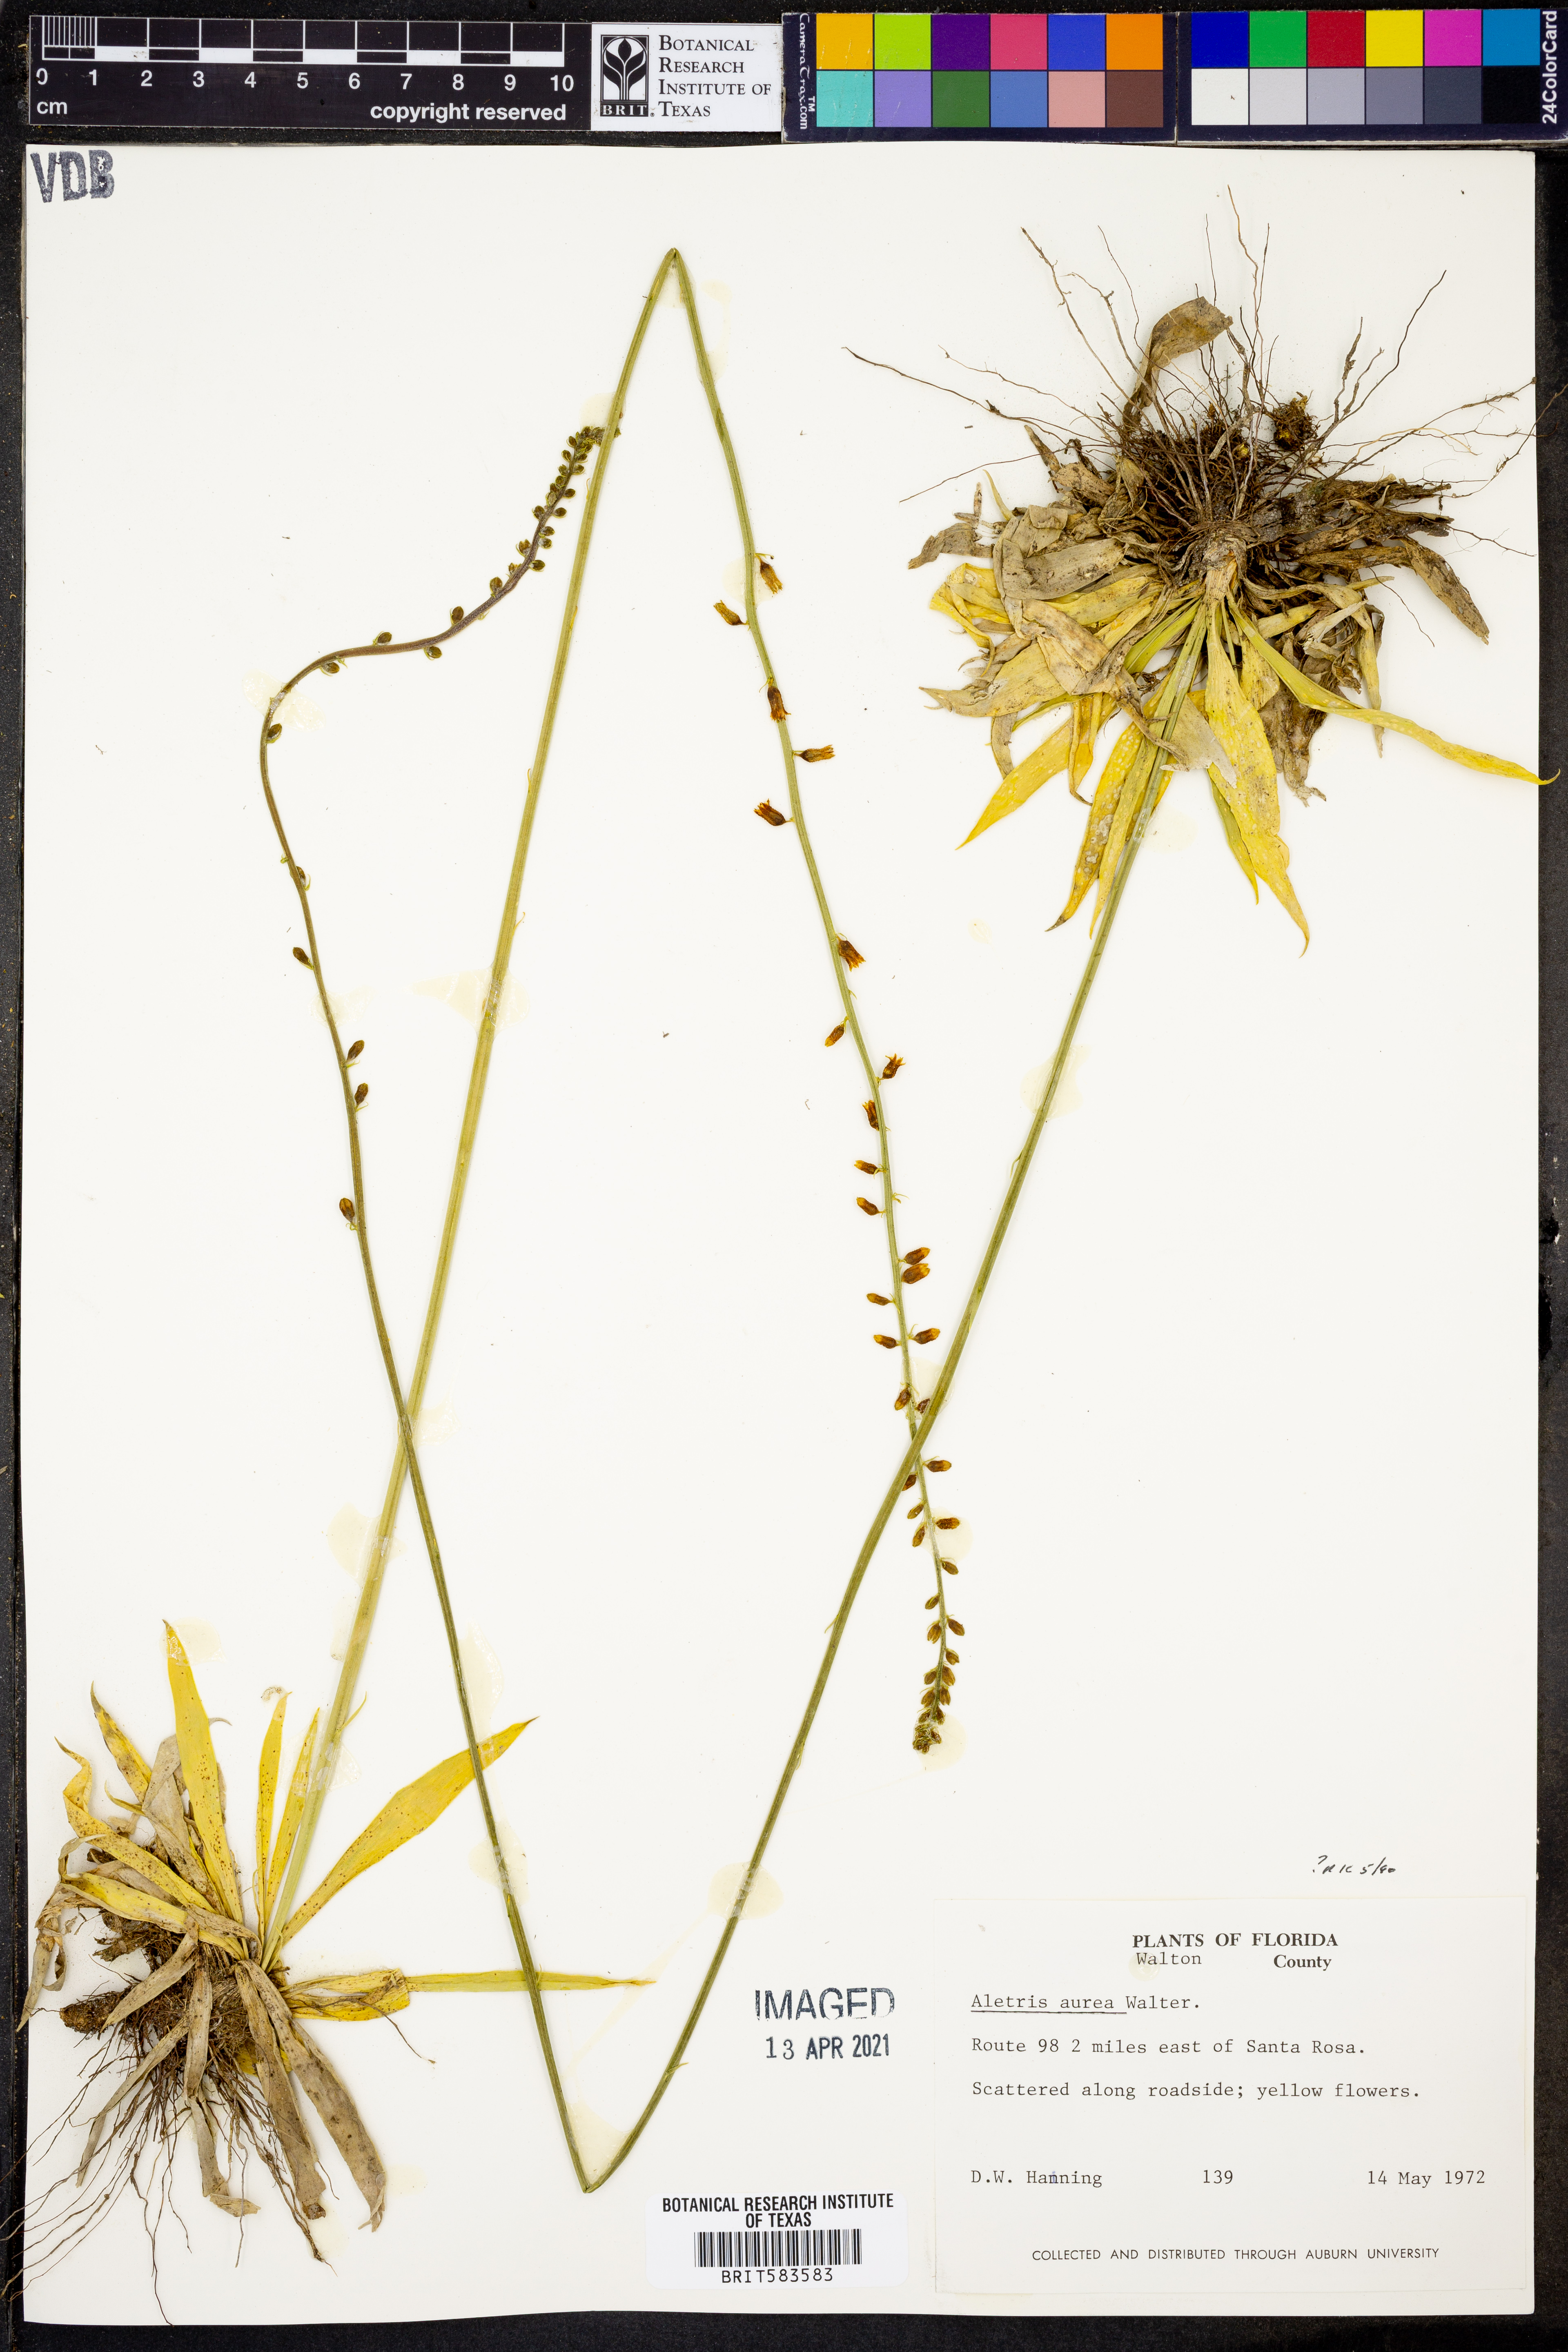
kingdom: Plantae
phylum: Tracheophyta
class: Liliopsida
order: Dioscoreales
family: Nartheciaceae
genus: Aletris
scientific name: Aletris aurea
